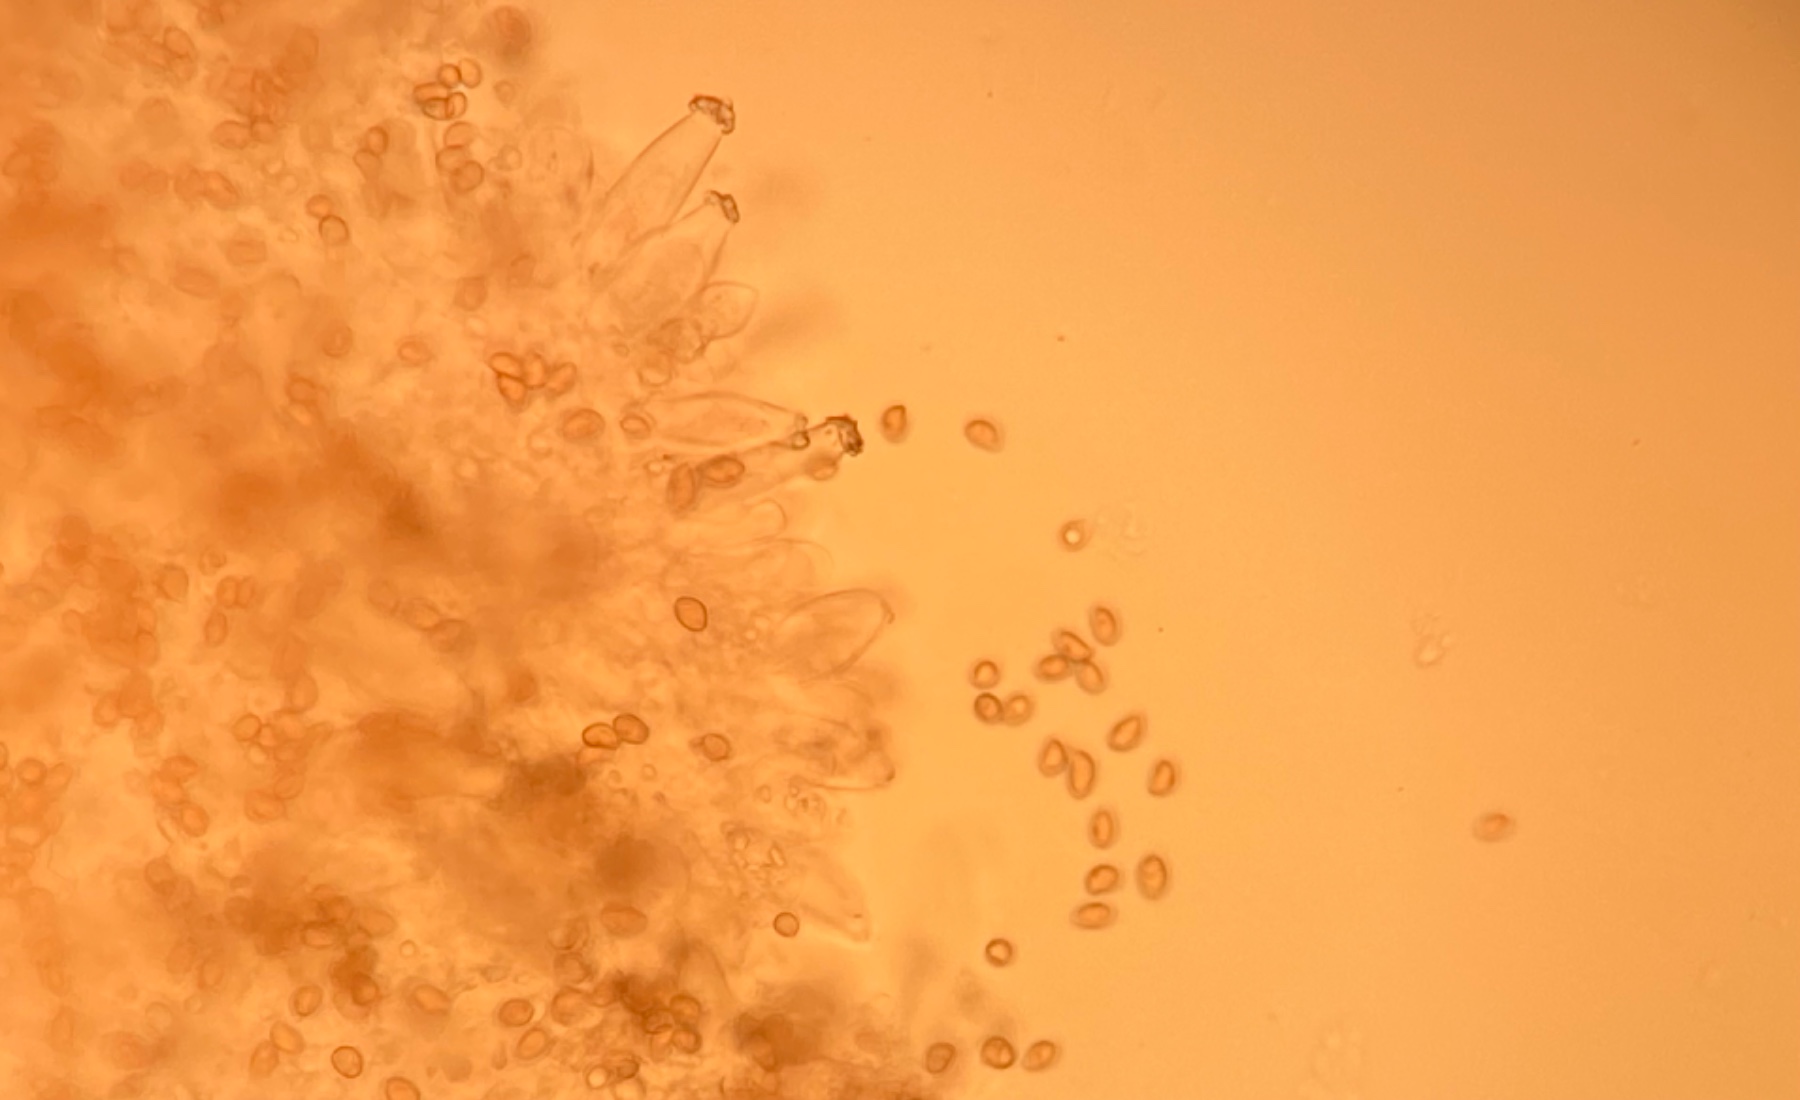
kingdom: Fungi
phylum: Basidiomycota
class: Agaricomycetes
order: Agaricales
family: Inocybaceae
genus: Inocybe
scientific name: Inocybe
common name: trævlhat
